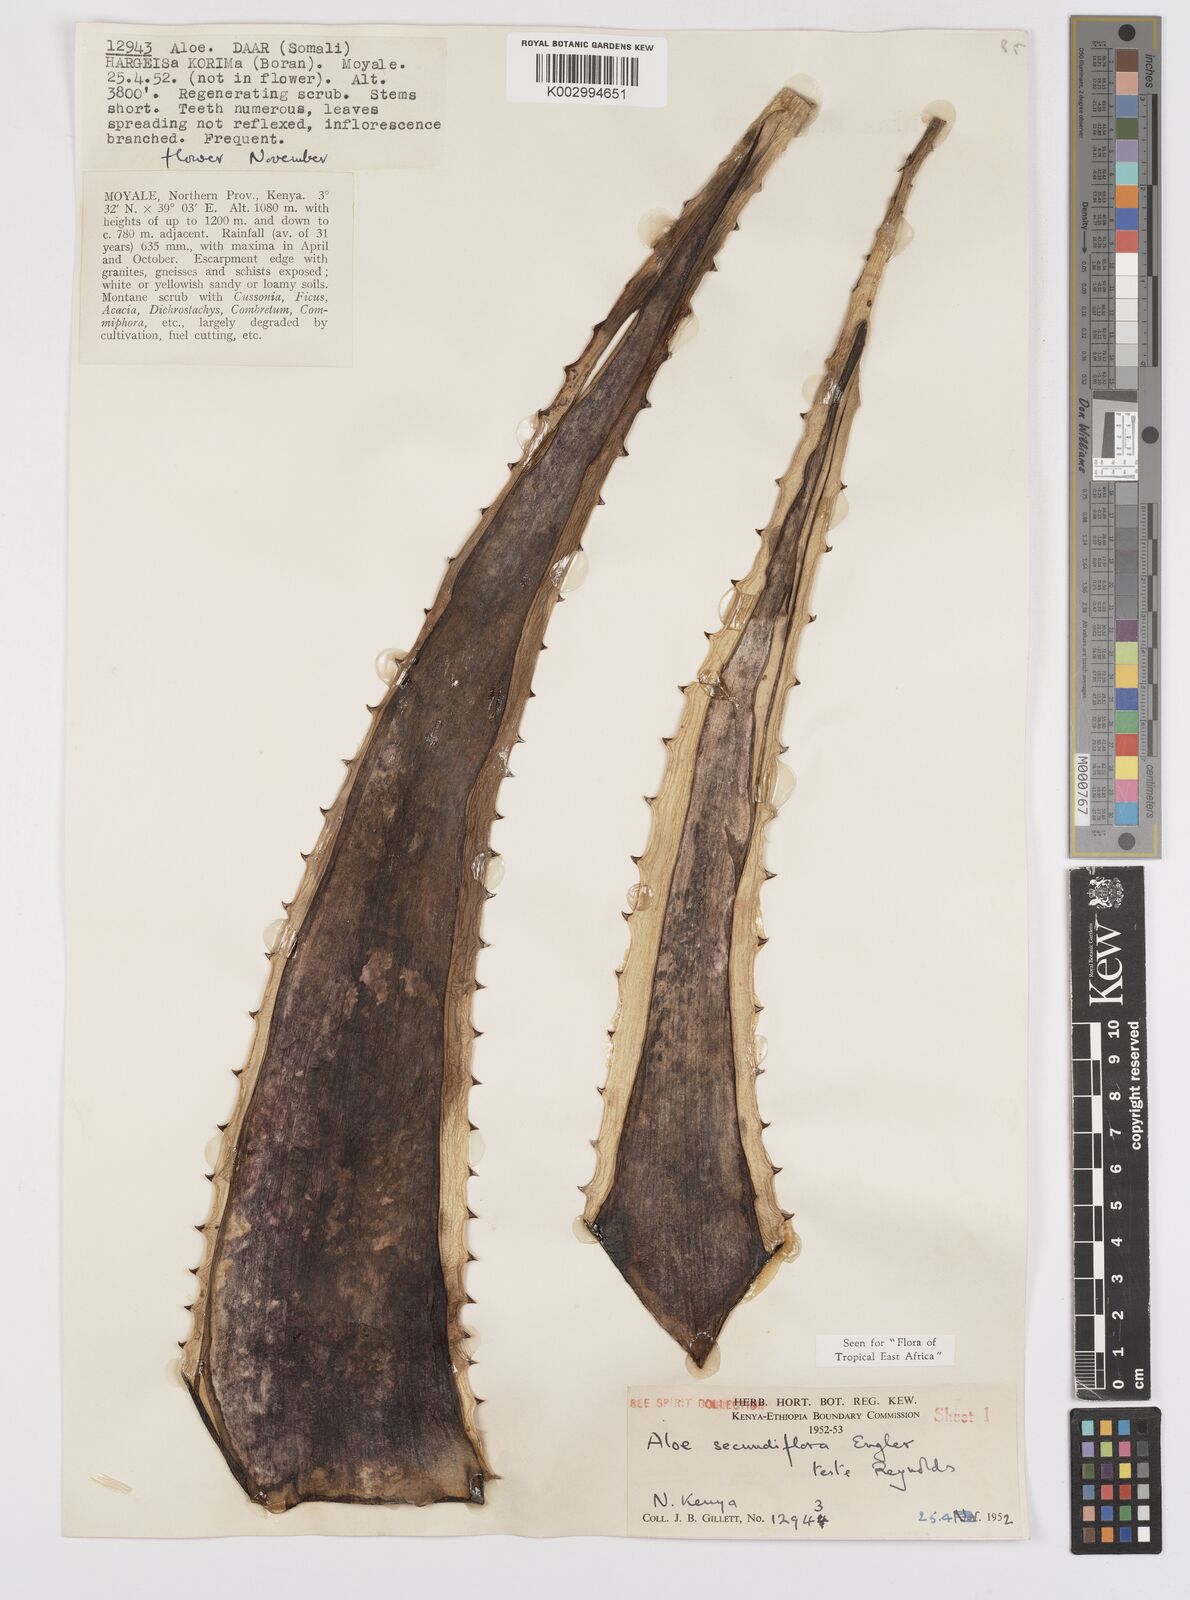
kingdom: Plantae
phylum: Tracheophyta
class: Liliopsida
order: Asparagales
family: Asphodelaceae
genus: Aloe
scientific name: Aloe secundiflora
